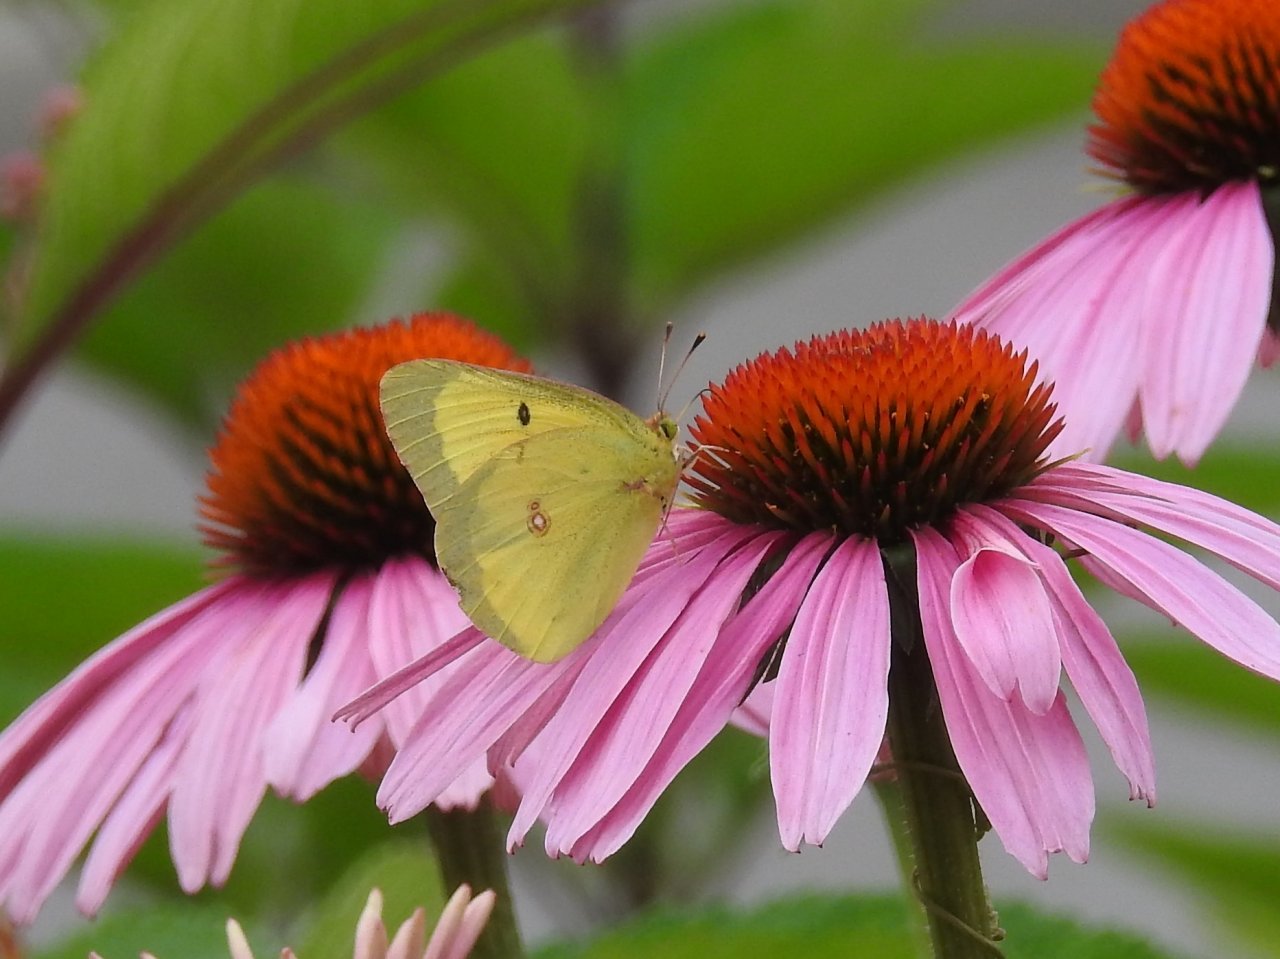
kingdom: Animalia
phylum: Arthropoda
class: Insecta
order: Lepidoptera
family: Pieridae
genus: Colias
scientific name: Colias philodice
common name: Clouded Sulphur
